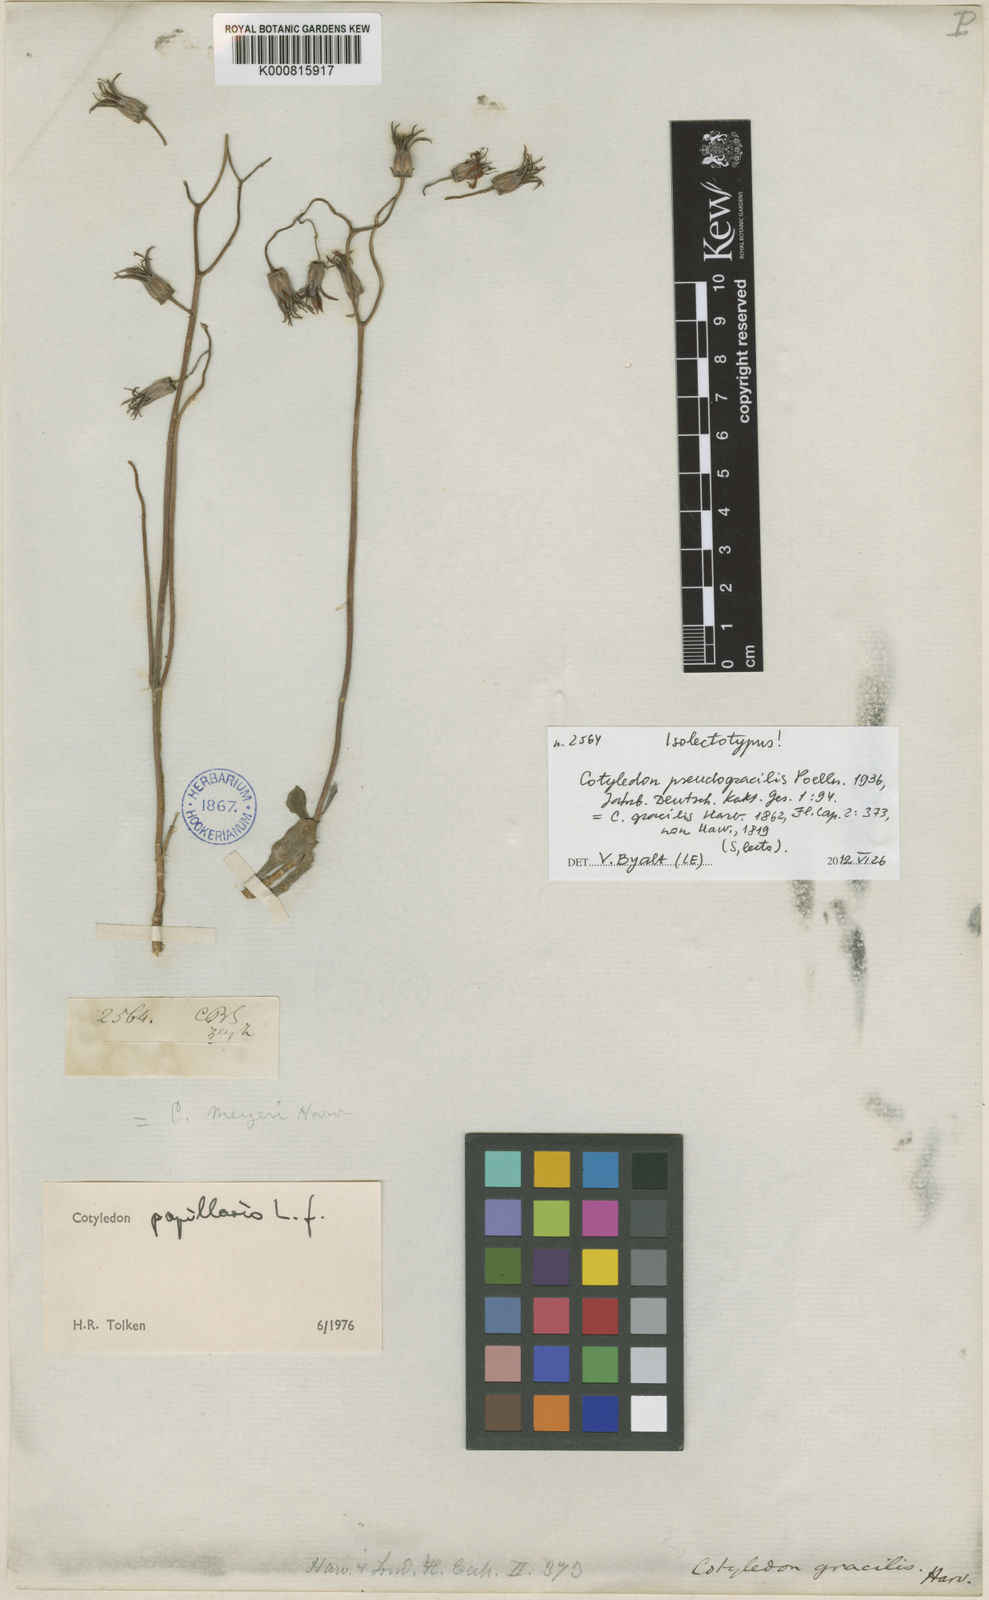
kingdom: Plantae
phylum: Tracheophyta
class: Magnoliopsida
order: Saxifragales
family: Crassulaceae
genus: Cotyledon
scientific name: Cotyledon papillaris
